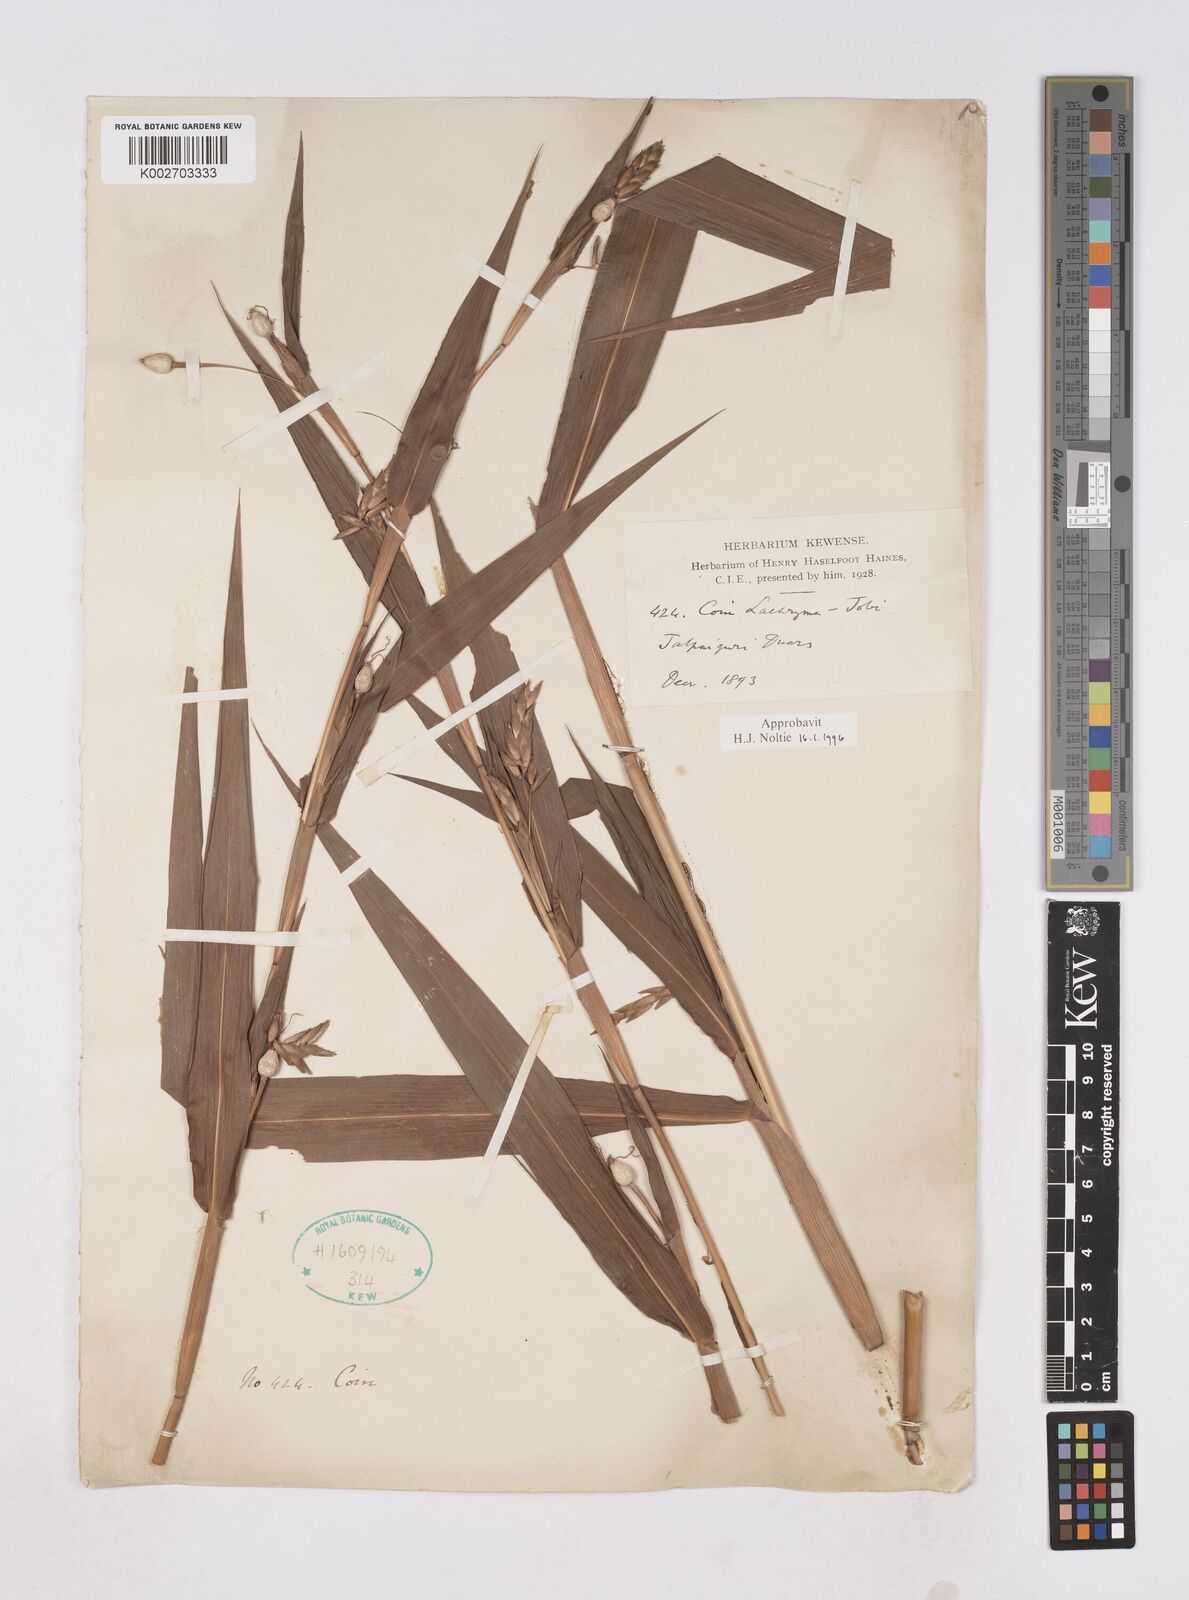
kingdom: Plantae
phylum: Tracheophyta
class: Liliopsida
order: Poales
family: Poaceae
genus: Coix
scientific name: Coix lacryma-jobi
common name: Job's tears
